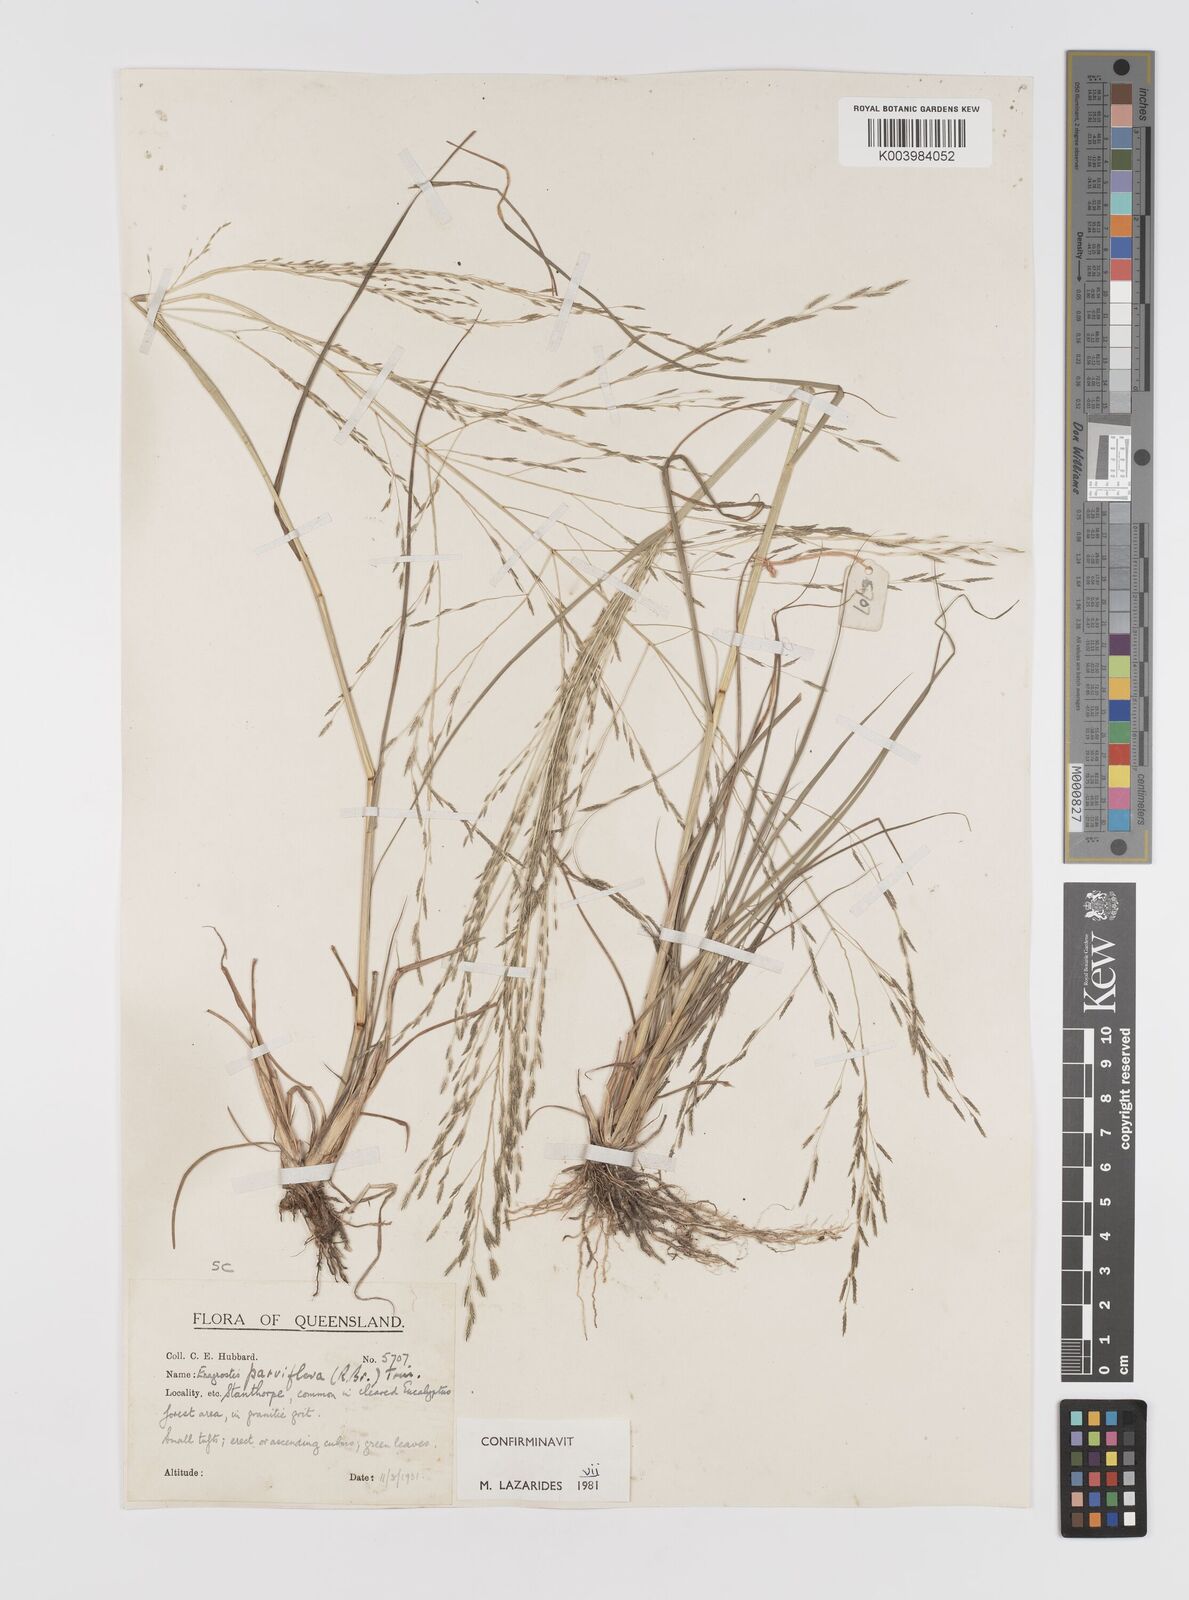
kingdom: Plantae
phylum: Tracheophyta
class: Liliopsida
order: Poales
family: Poaceae
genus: Eragrostis
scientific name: Eragrostis parviflora
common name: Weeping love-grass
